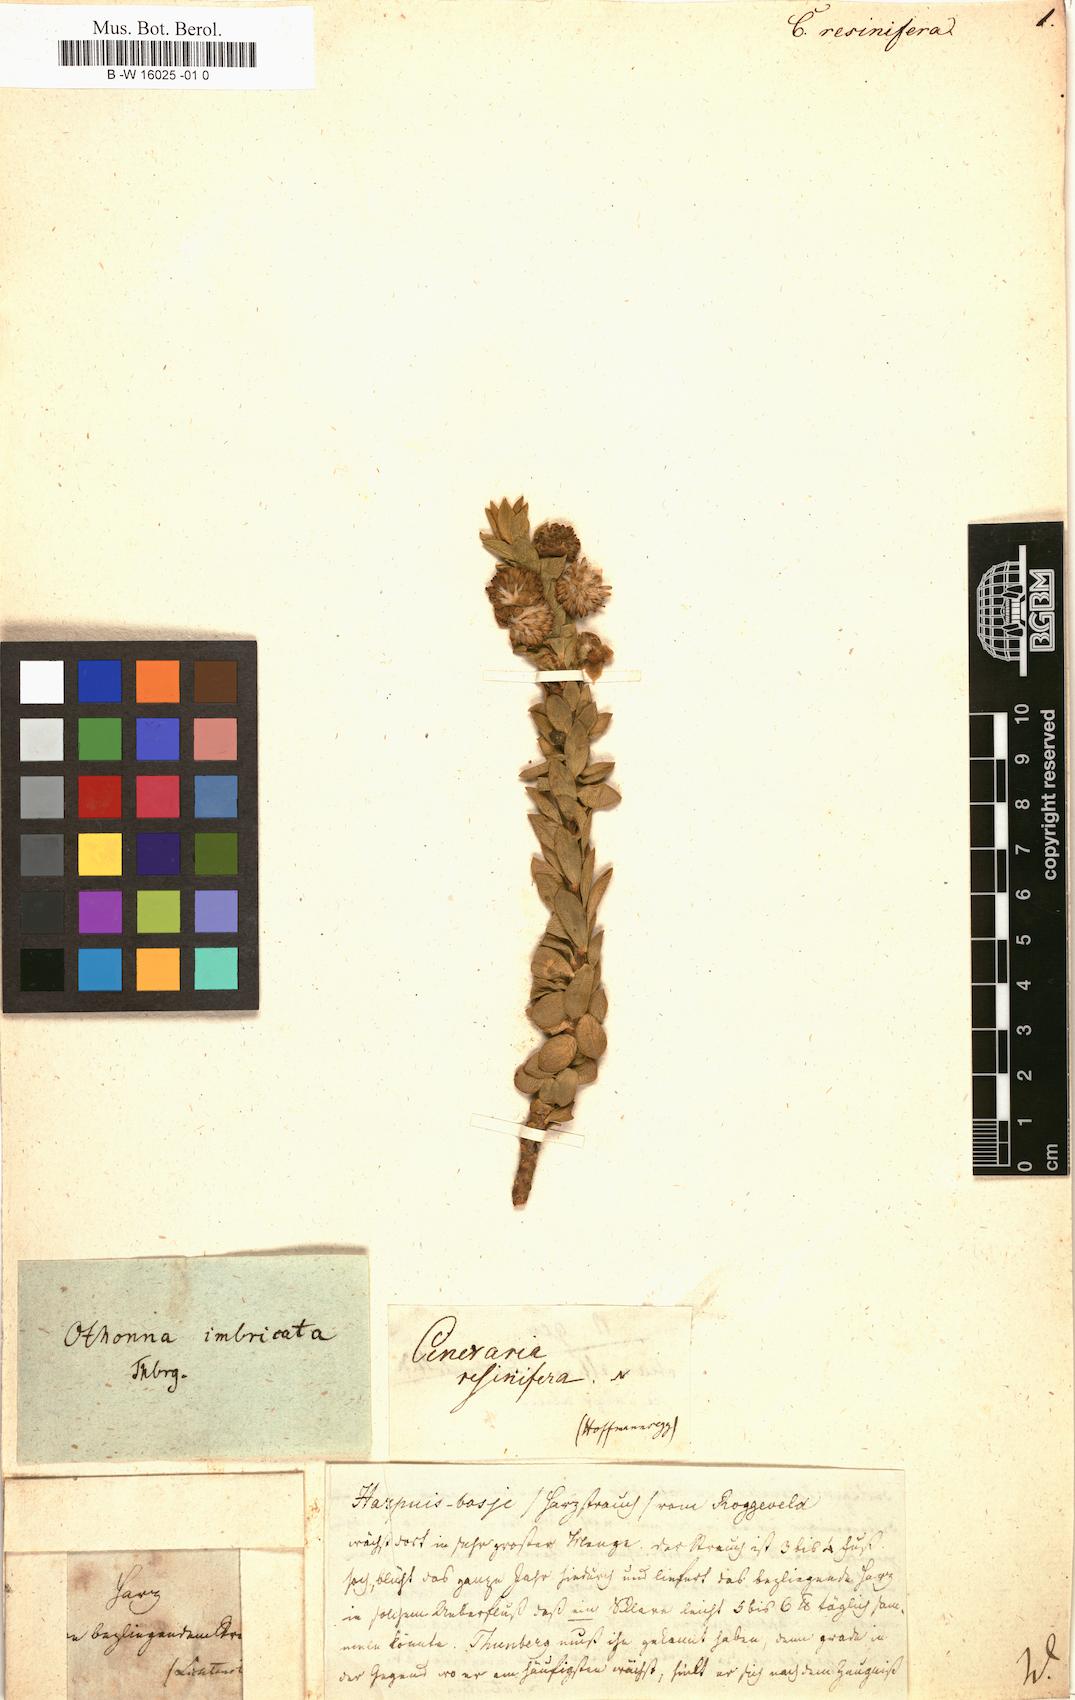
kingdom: Plantae
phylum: Tracheophyta
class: Magnoliopsida
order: Asterales
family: Asteraceae
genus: Cineraria
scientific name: Cineraria
